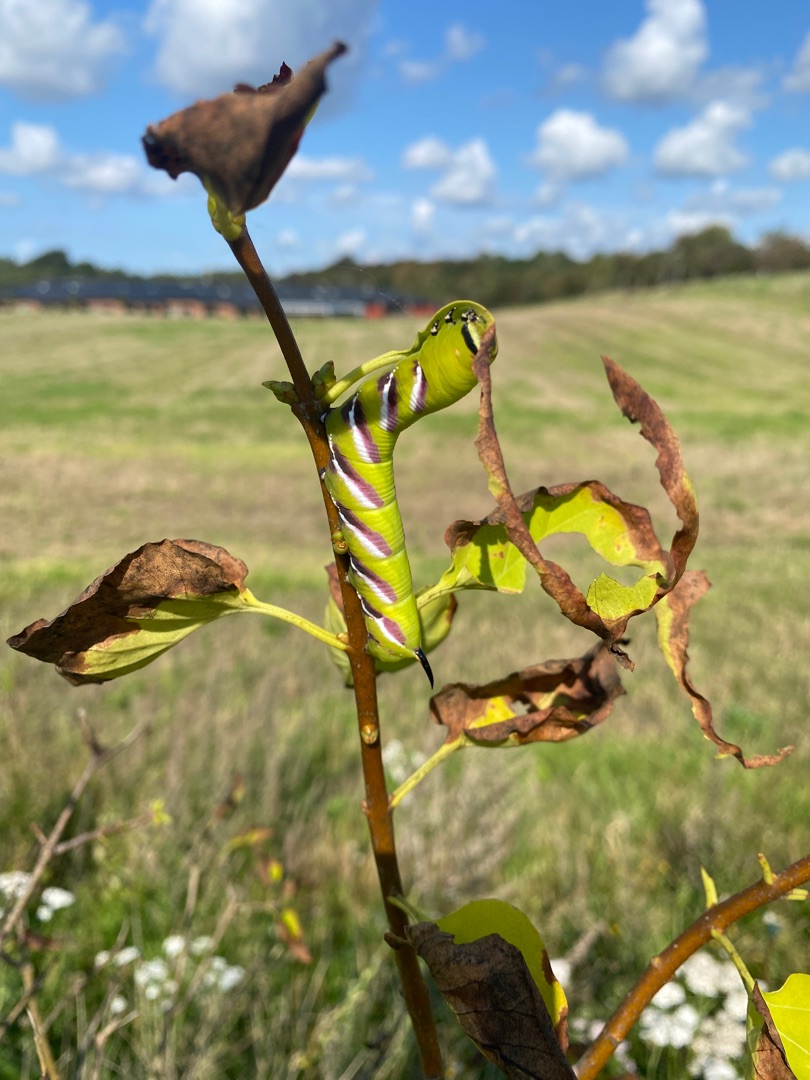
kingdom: Animalia
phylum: Arthropoda
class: Insecta
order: Lepidoptera
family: Sphingidae
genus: Sphinx
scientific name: Sphinx ligustri
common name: Ligustersværmer
